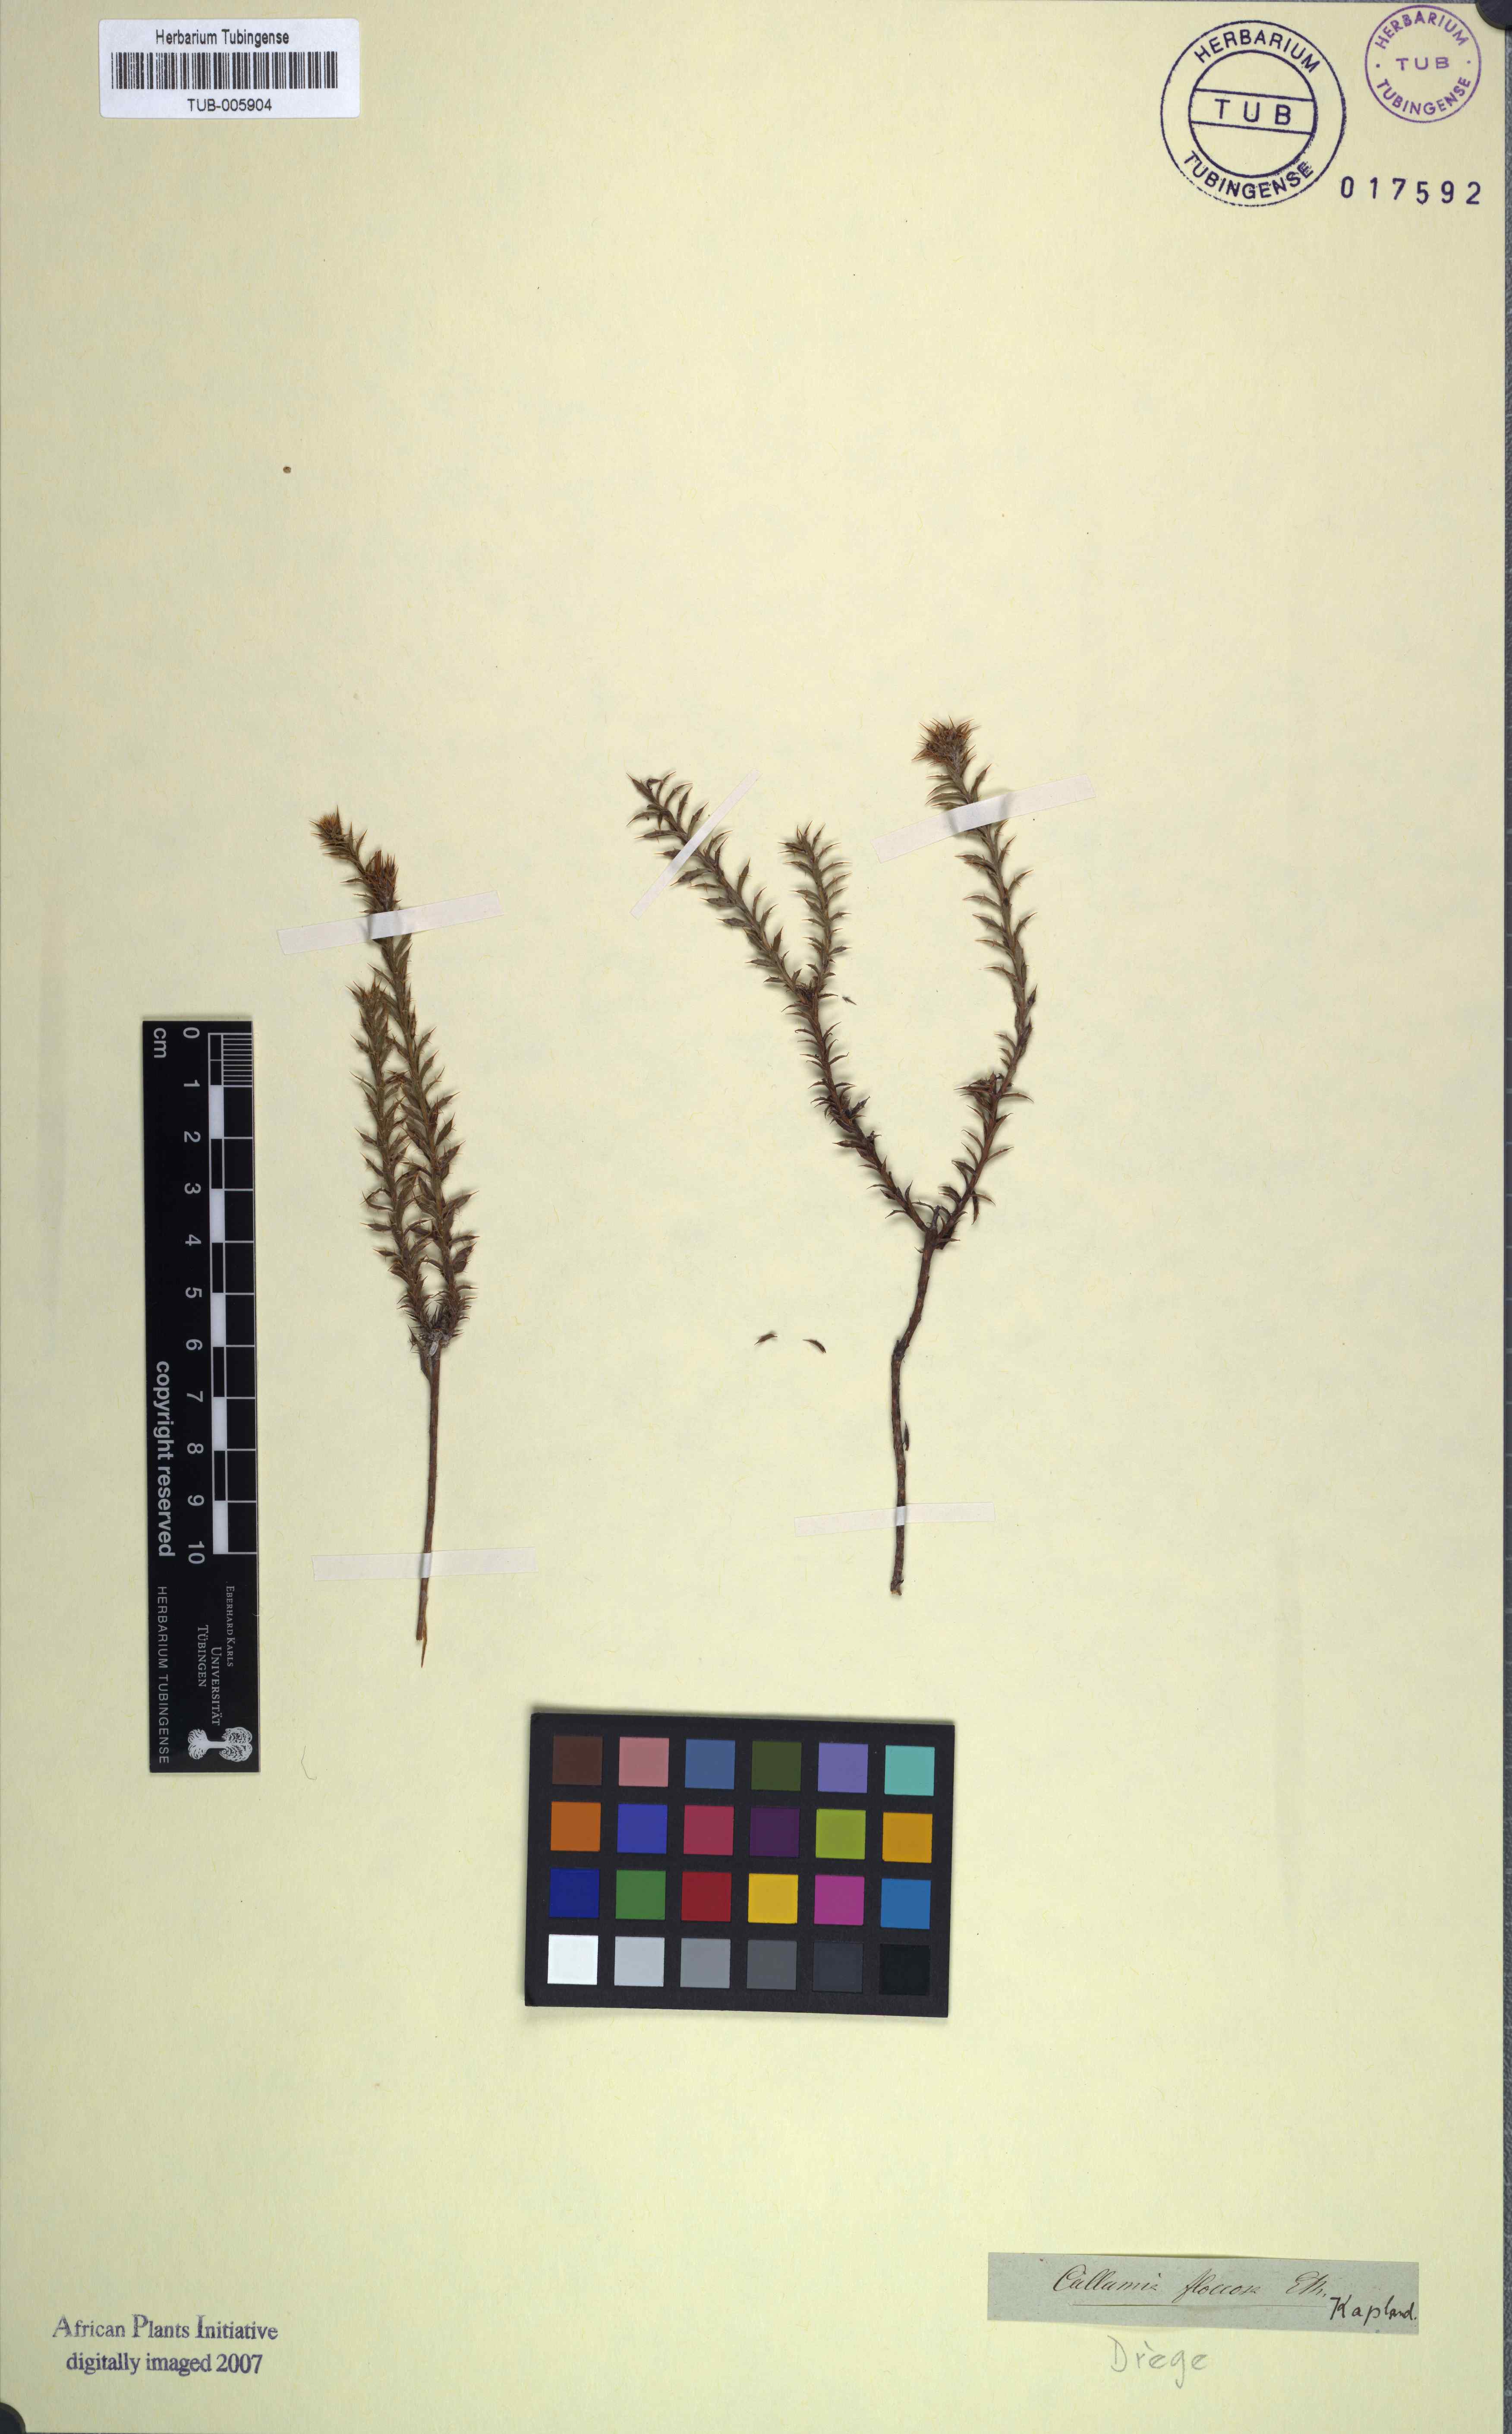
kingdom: Plantae
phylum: Tracheophyta
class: Magnoliopsida
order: Asterales
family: Asteraceae
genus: Cullumia
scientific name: Cullumia floccosa
